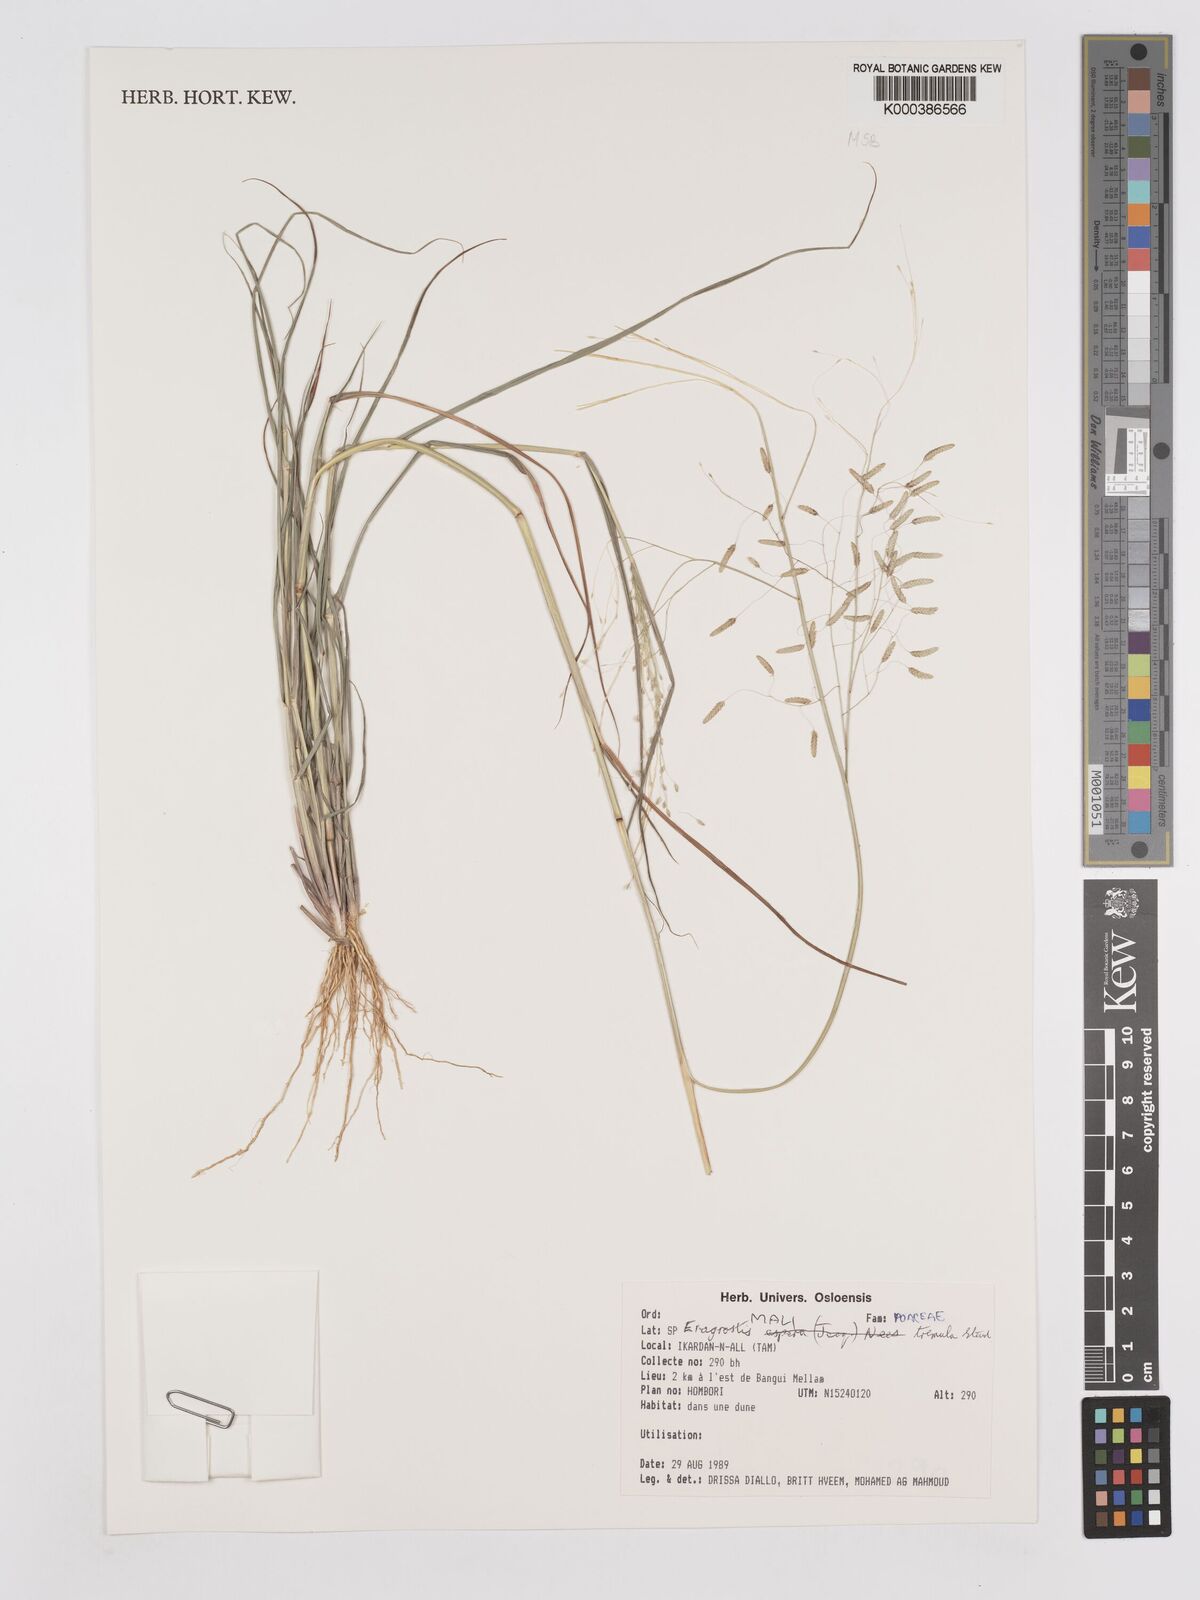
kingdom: Plantae
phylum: Tracheophyta
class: Liliopsida
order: Poales
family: Poaceae
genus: Eragrostis
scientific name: Eragrostis tremula
